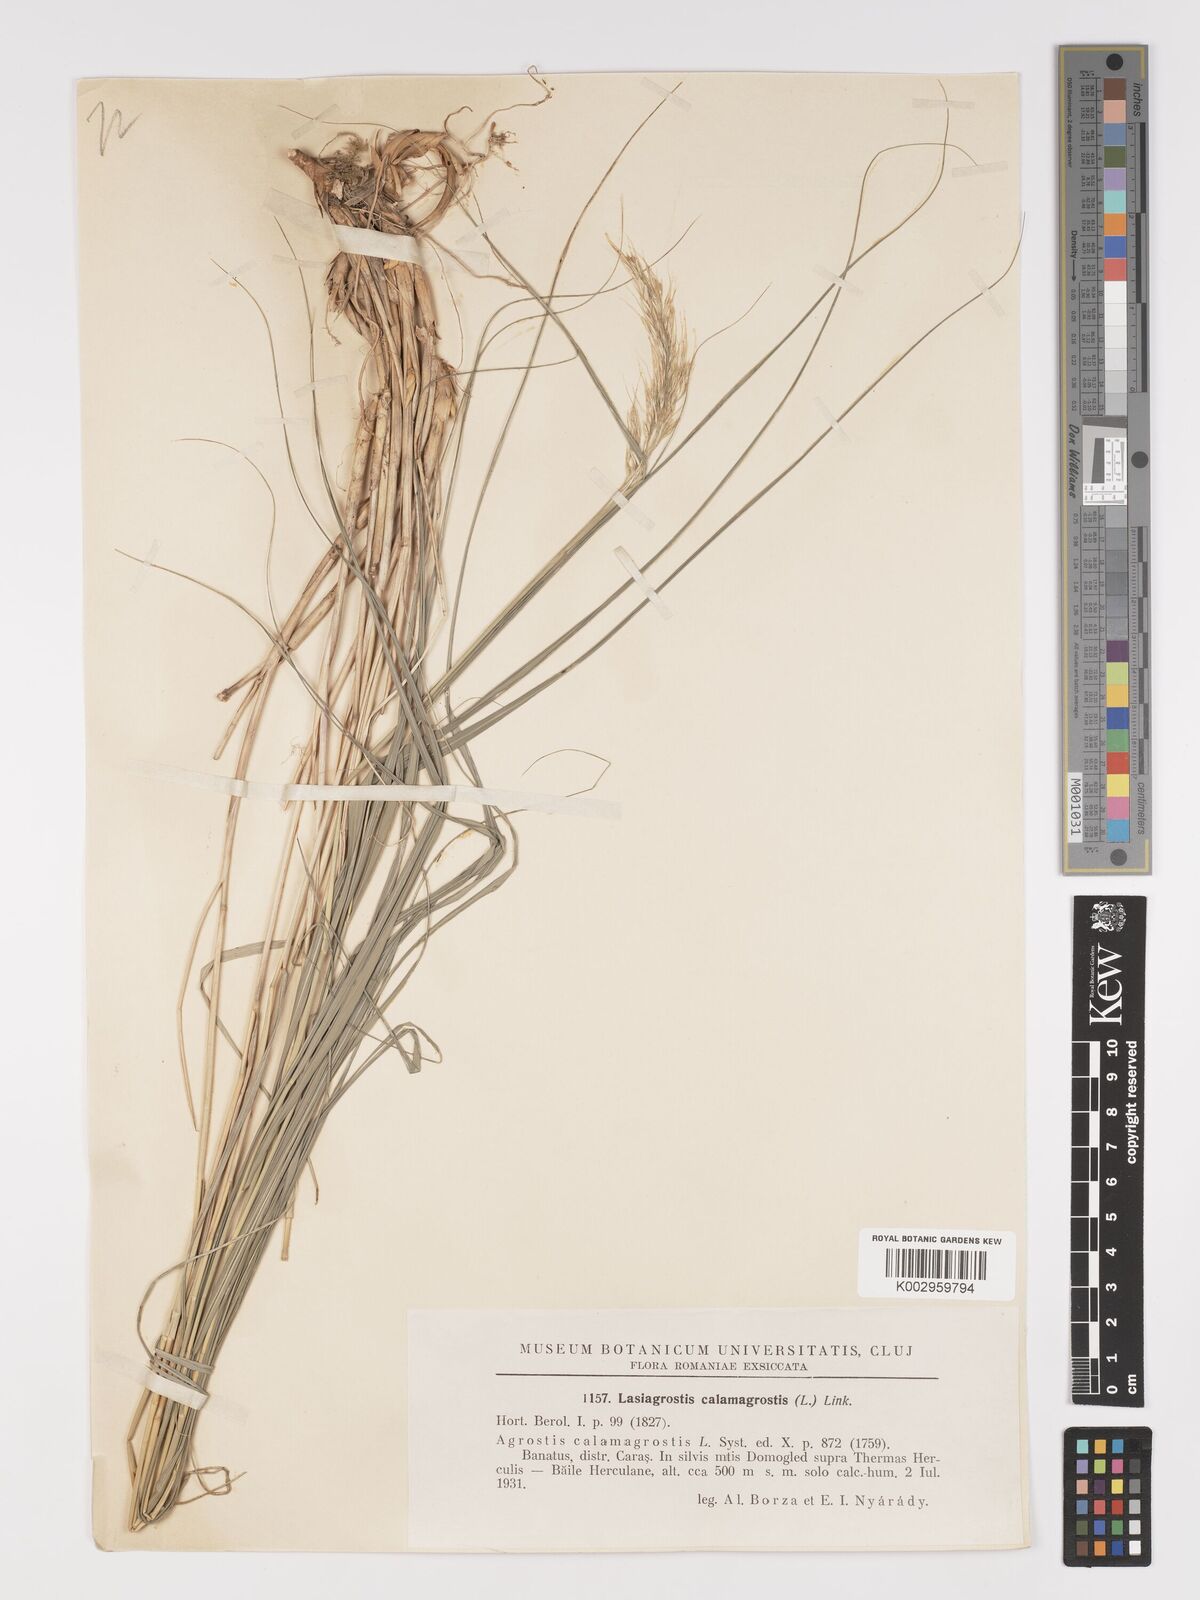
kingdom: Plantae
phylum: Tracheophyta
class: Liliopsida
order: Poales
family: Poaceae
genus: Achnatherum
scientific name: Achnatherum calamagrostis
